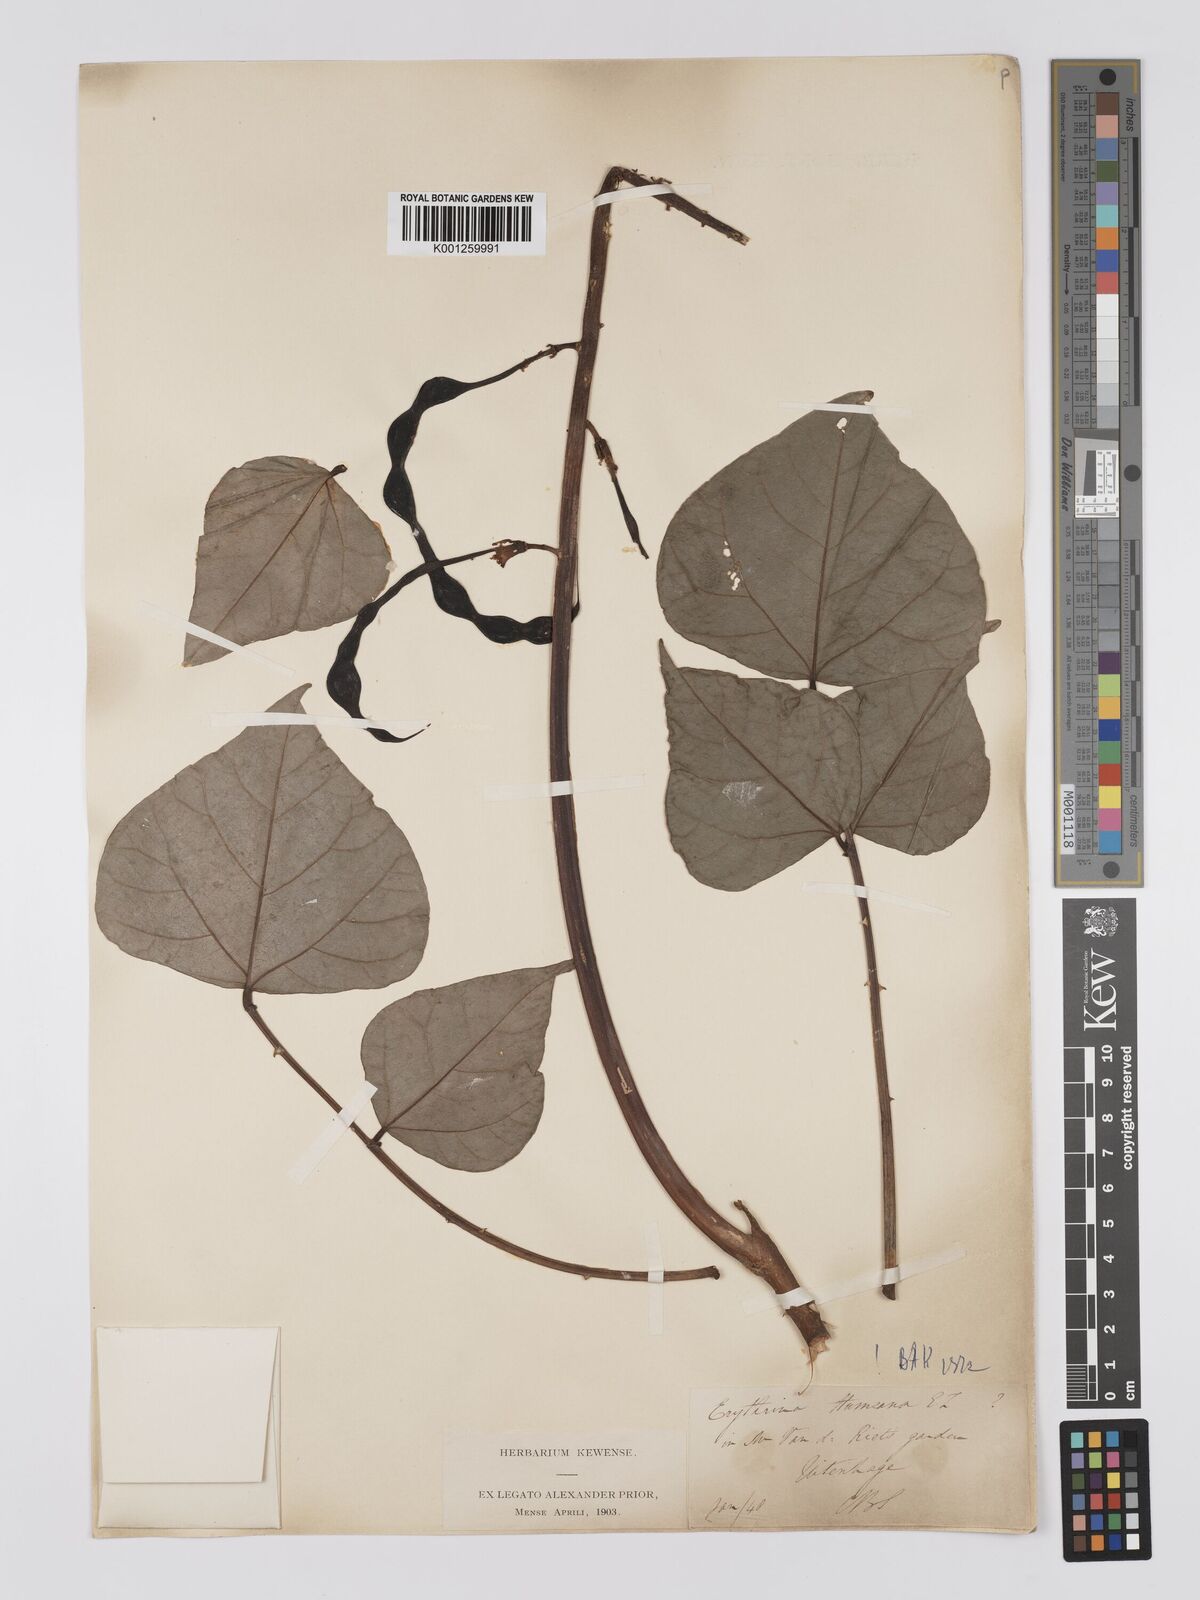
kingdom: Plantae
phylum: Tracheophyta
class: Magnoliopsida
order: Fabales
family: Fabaceae
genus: Erythrina
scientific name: Erythrina humeana
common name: Dwarf coral tree
